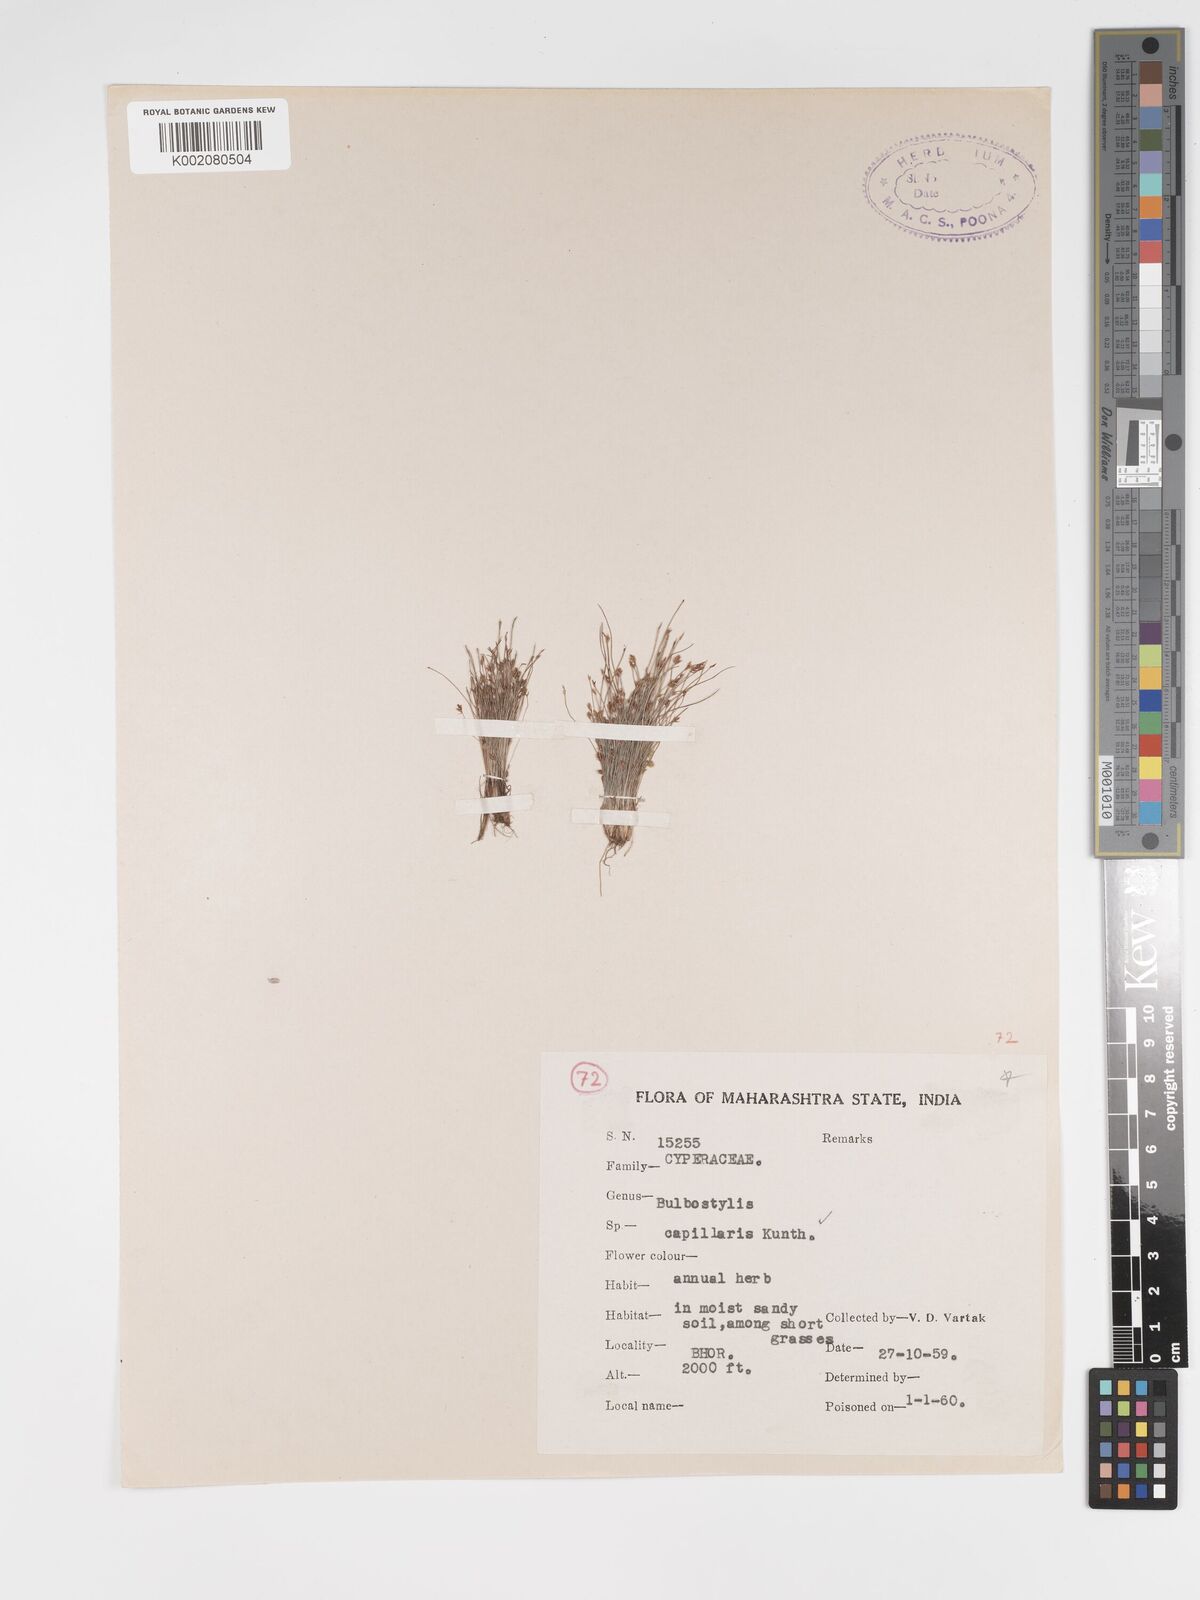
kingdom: Plantae
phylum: Tracheophyta
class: Liliopsida
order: Poales
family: Cyperaceae
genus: Bulbostylis
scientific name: Bulbostylis capillaris
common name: Densetuft hairsedge
